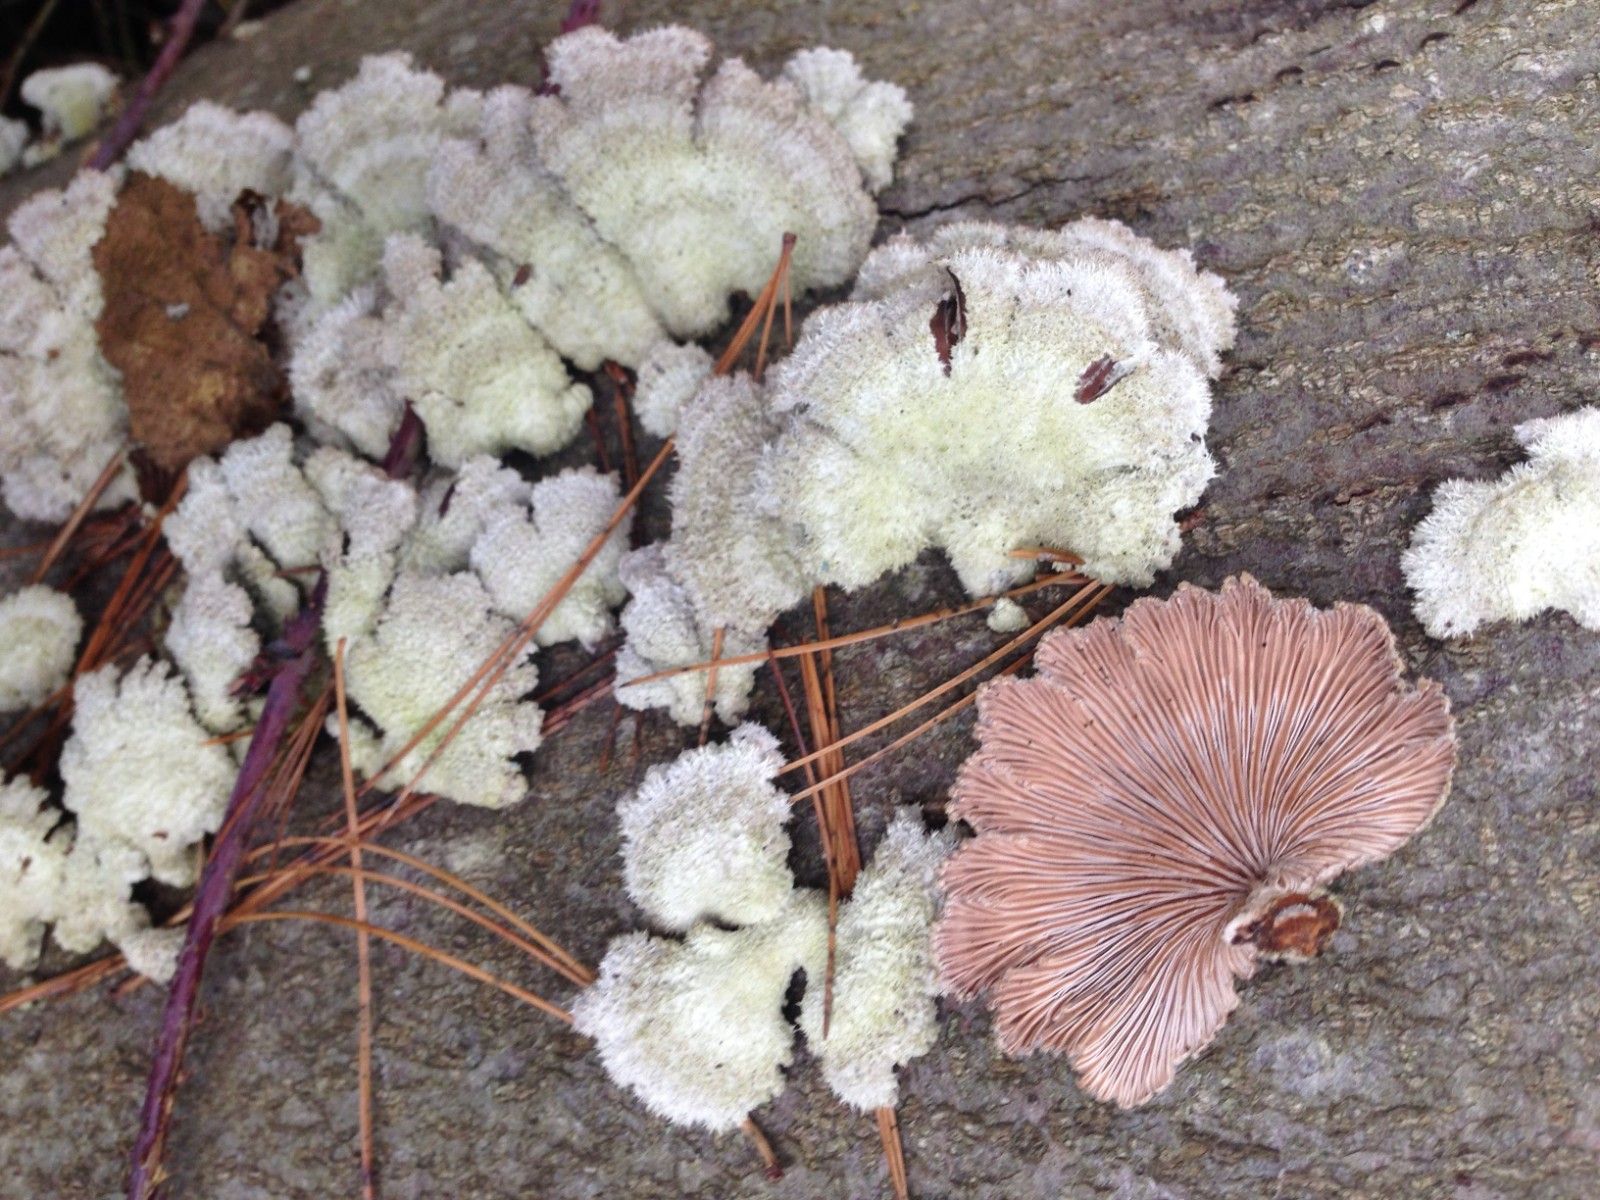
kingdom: Fungi
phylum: Basidiomycota
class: Agaricomycetes
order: Agaricales
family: Schizophyllaceae
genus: Schizophyllum
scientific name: Schizophyllum commune
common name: kløvblad
